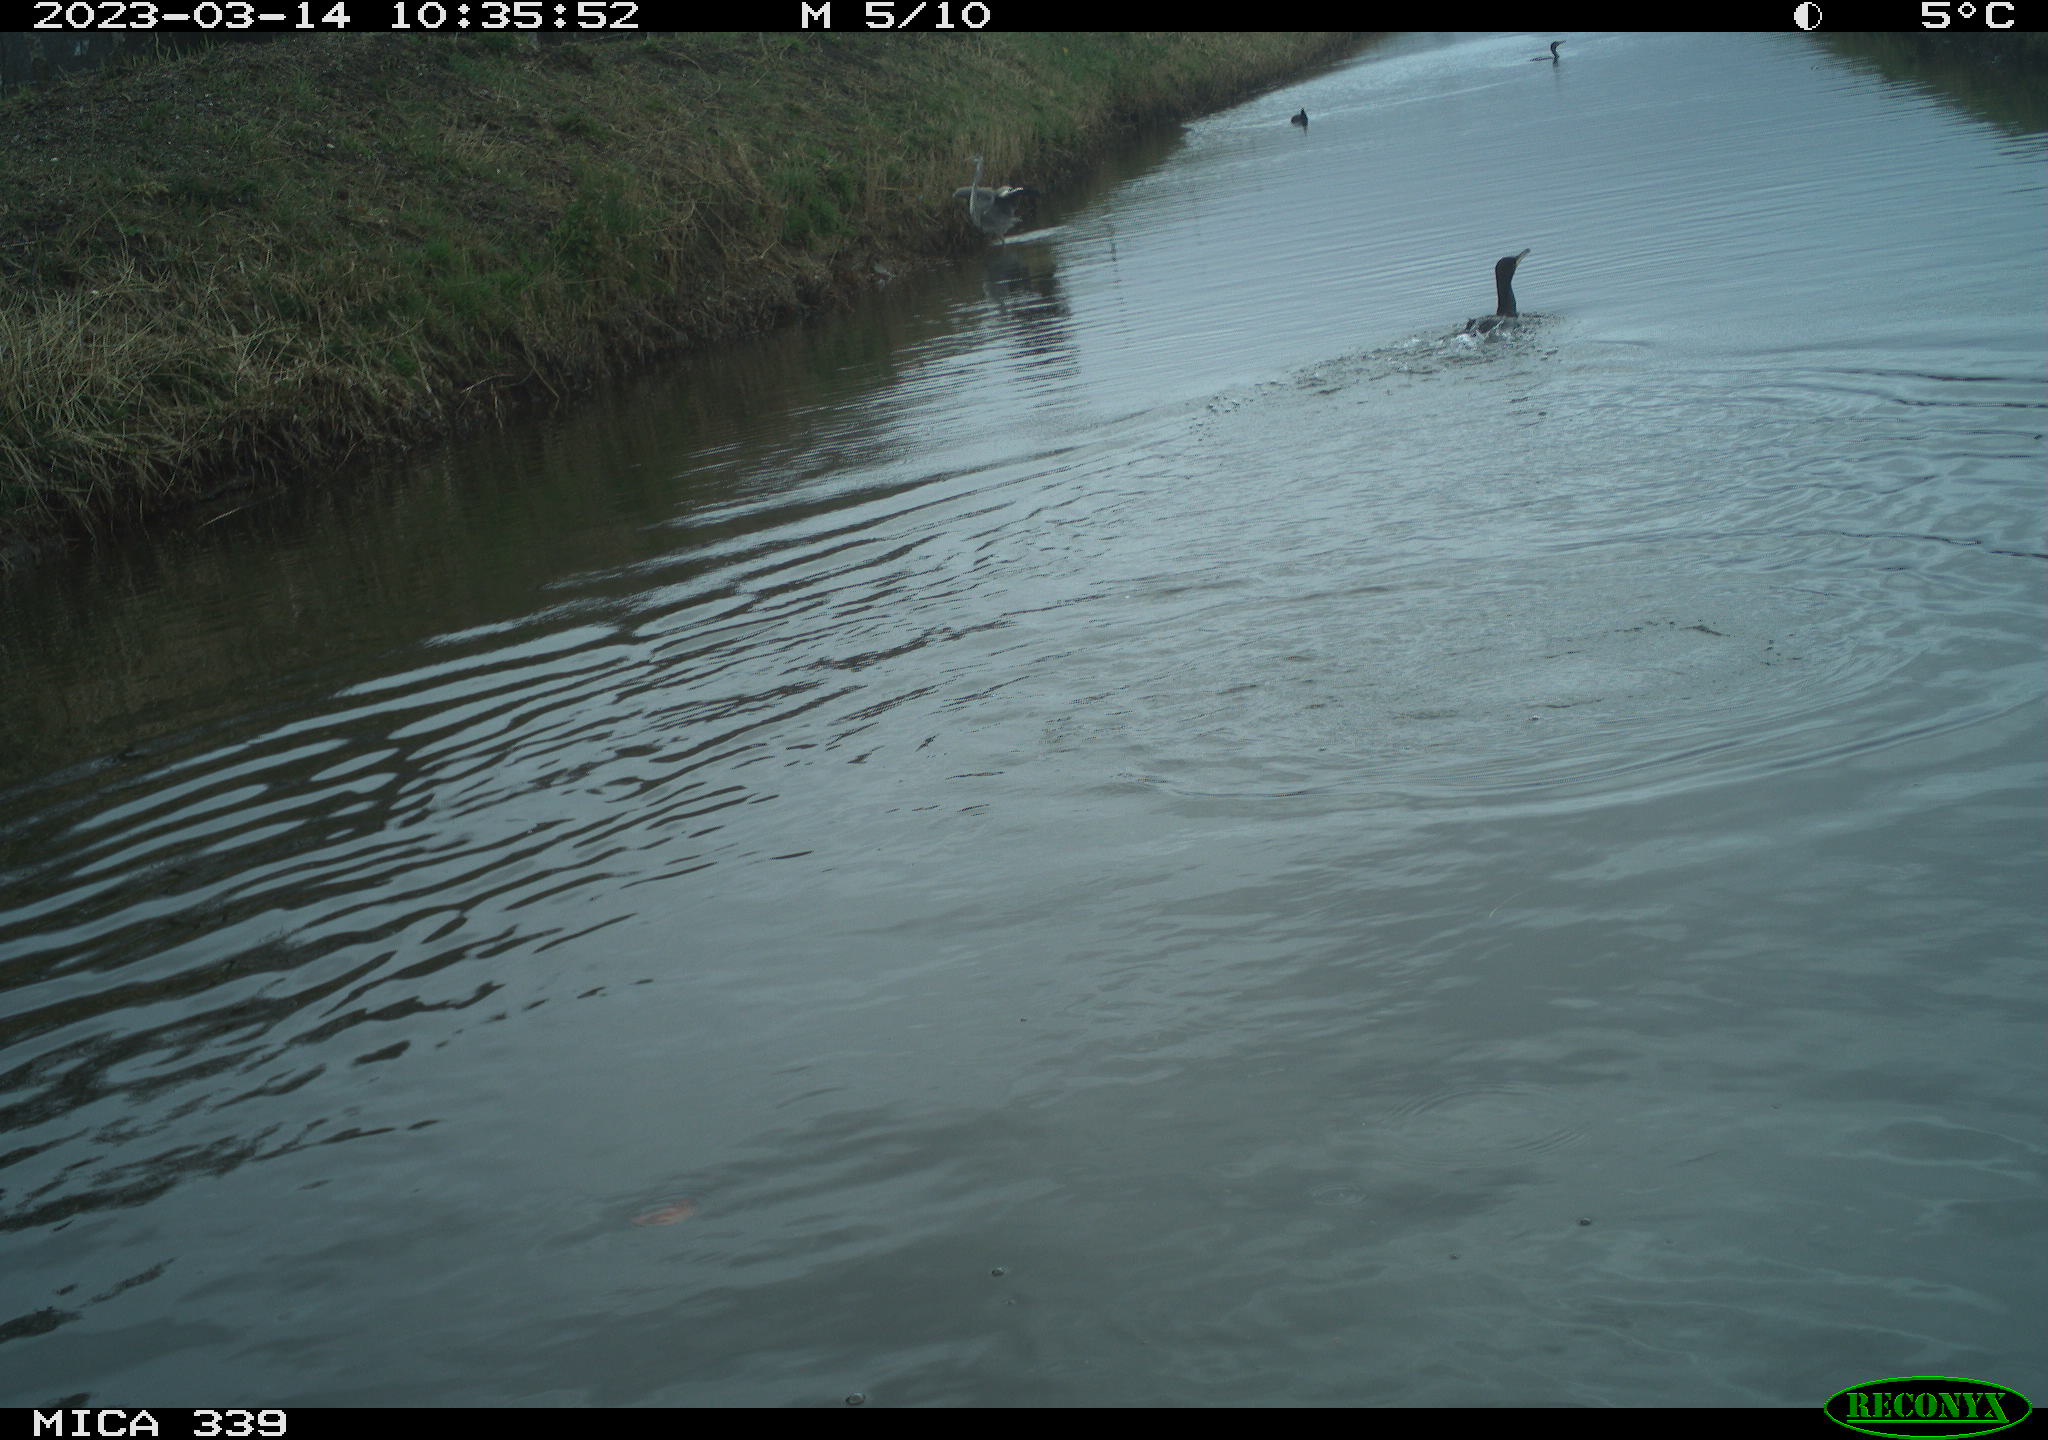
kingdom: Animalia
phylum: Chordata
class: Aves
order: Pelecaniformes
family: Ardeidae
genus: Ardea
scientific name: Ardea cinerea
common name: Grey heron
